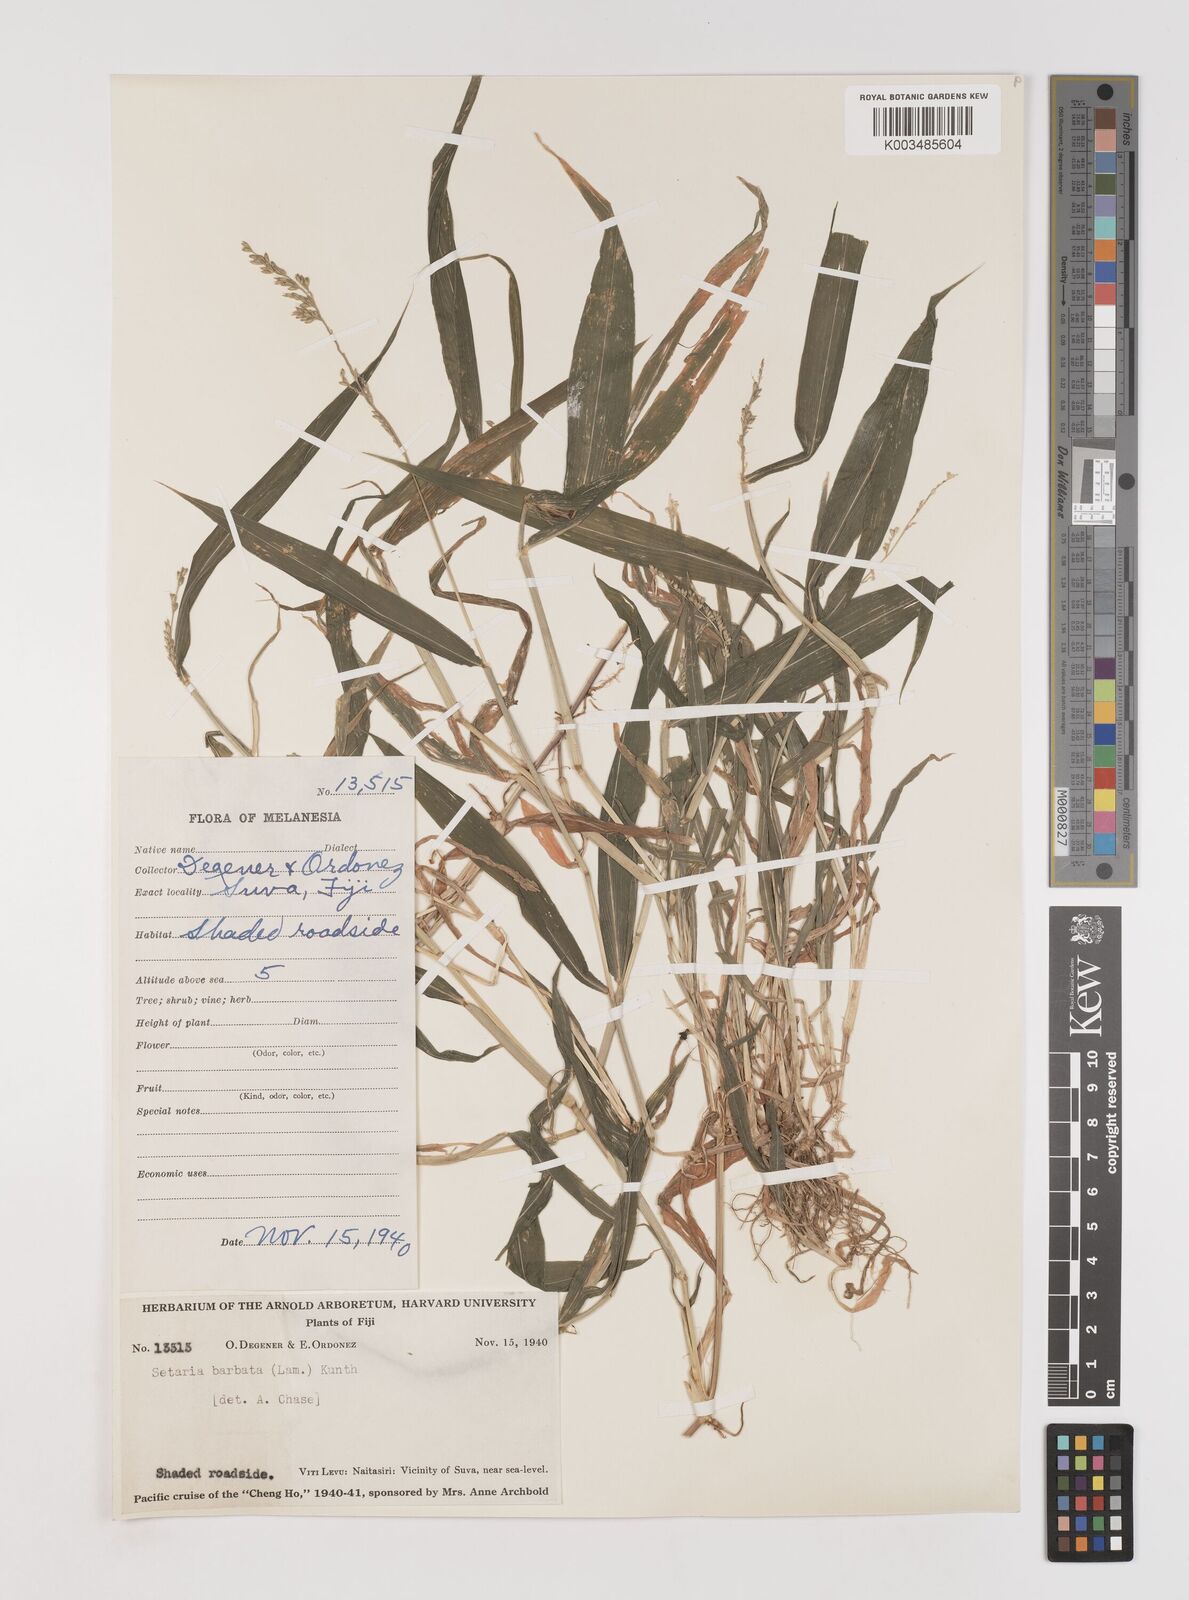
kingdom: Plantae
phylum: Tracheophyta
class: Liliopsida
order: Poales
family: Poaceae
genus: Setaria
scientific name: Setaria barbata
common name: East indian bristlegrass
